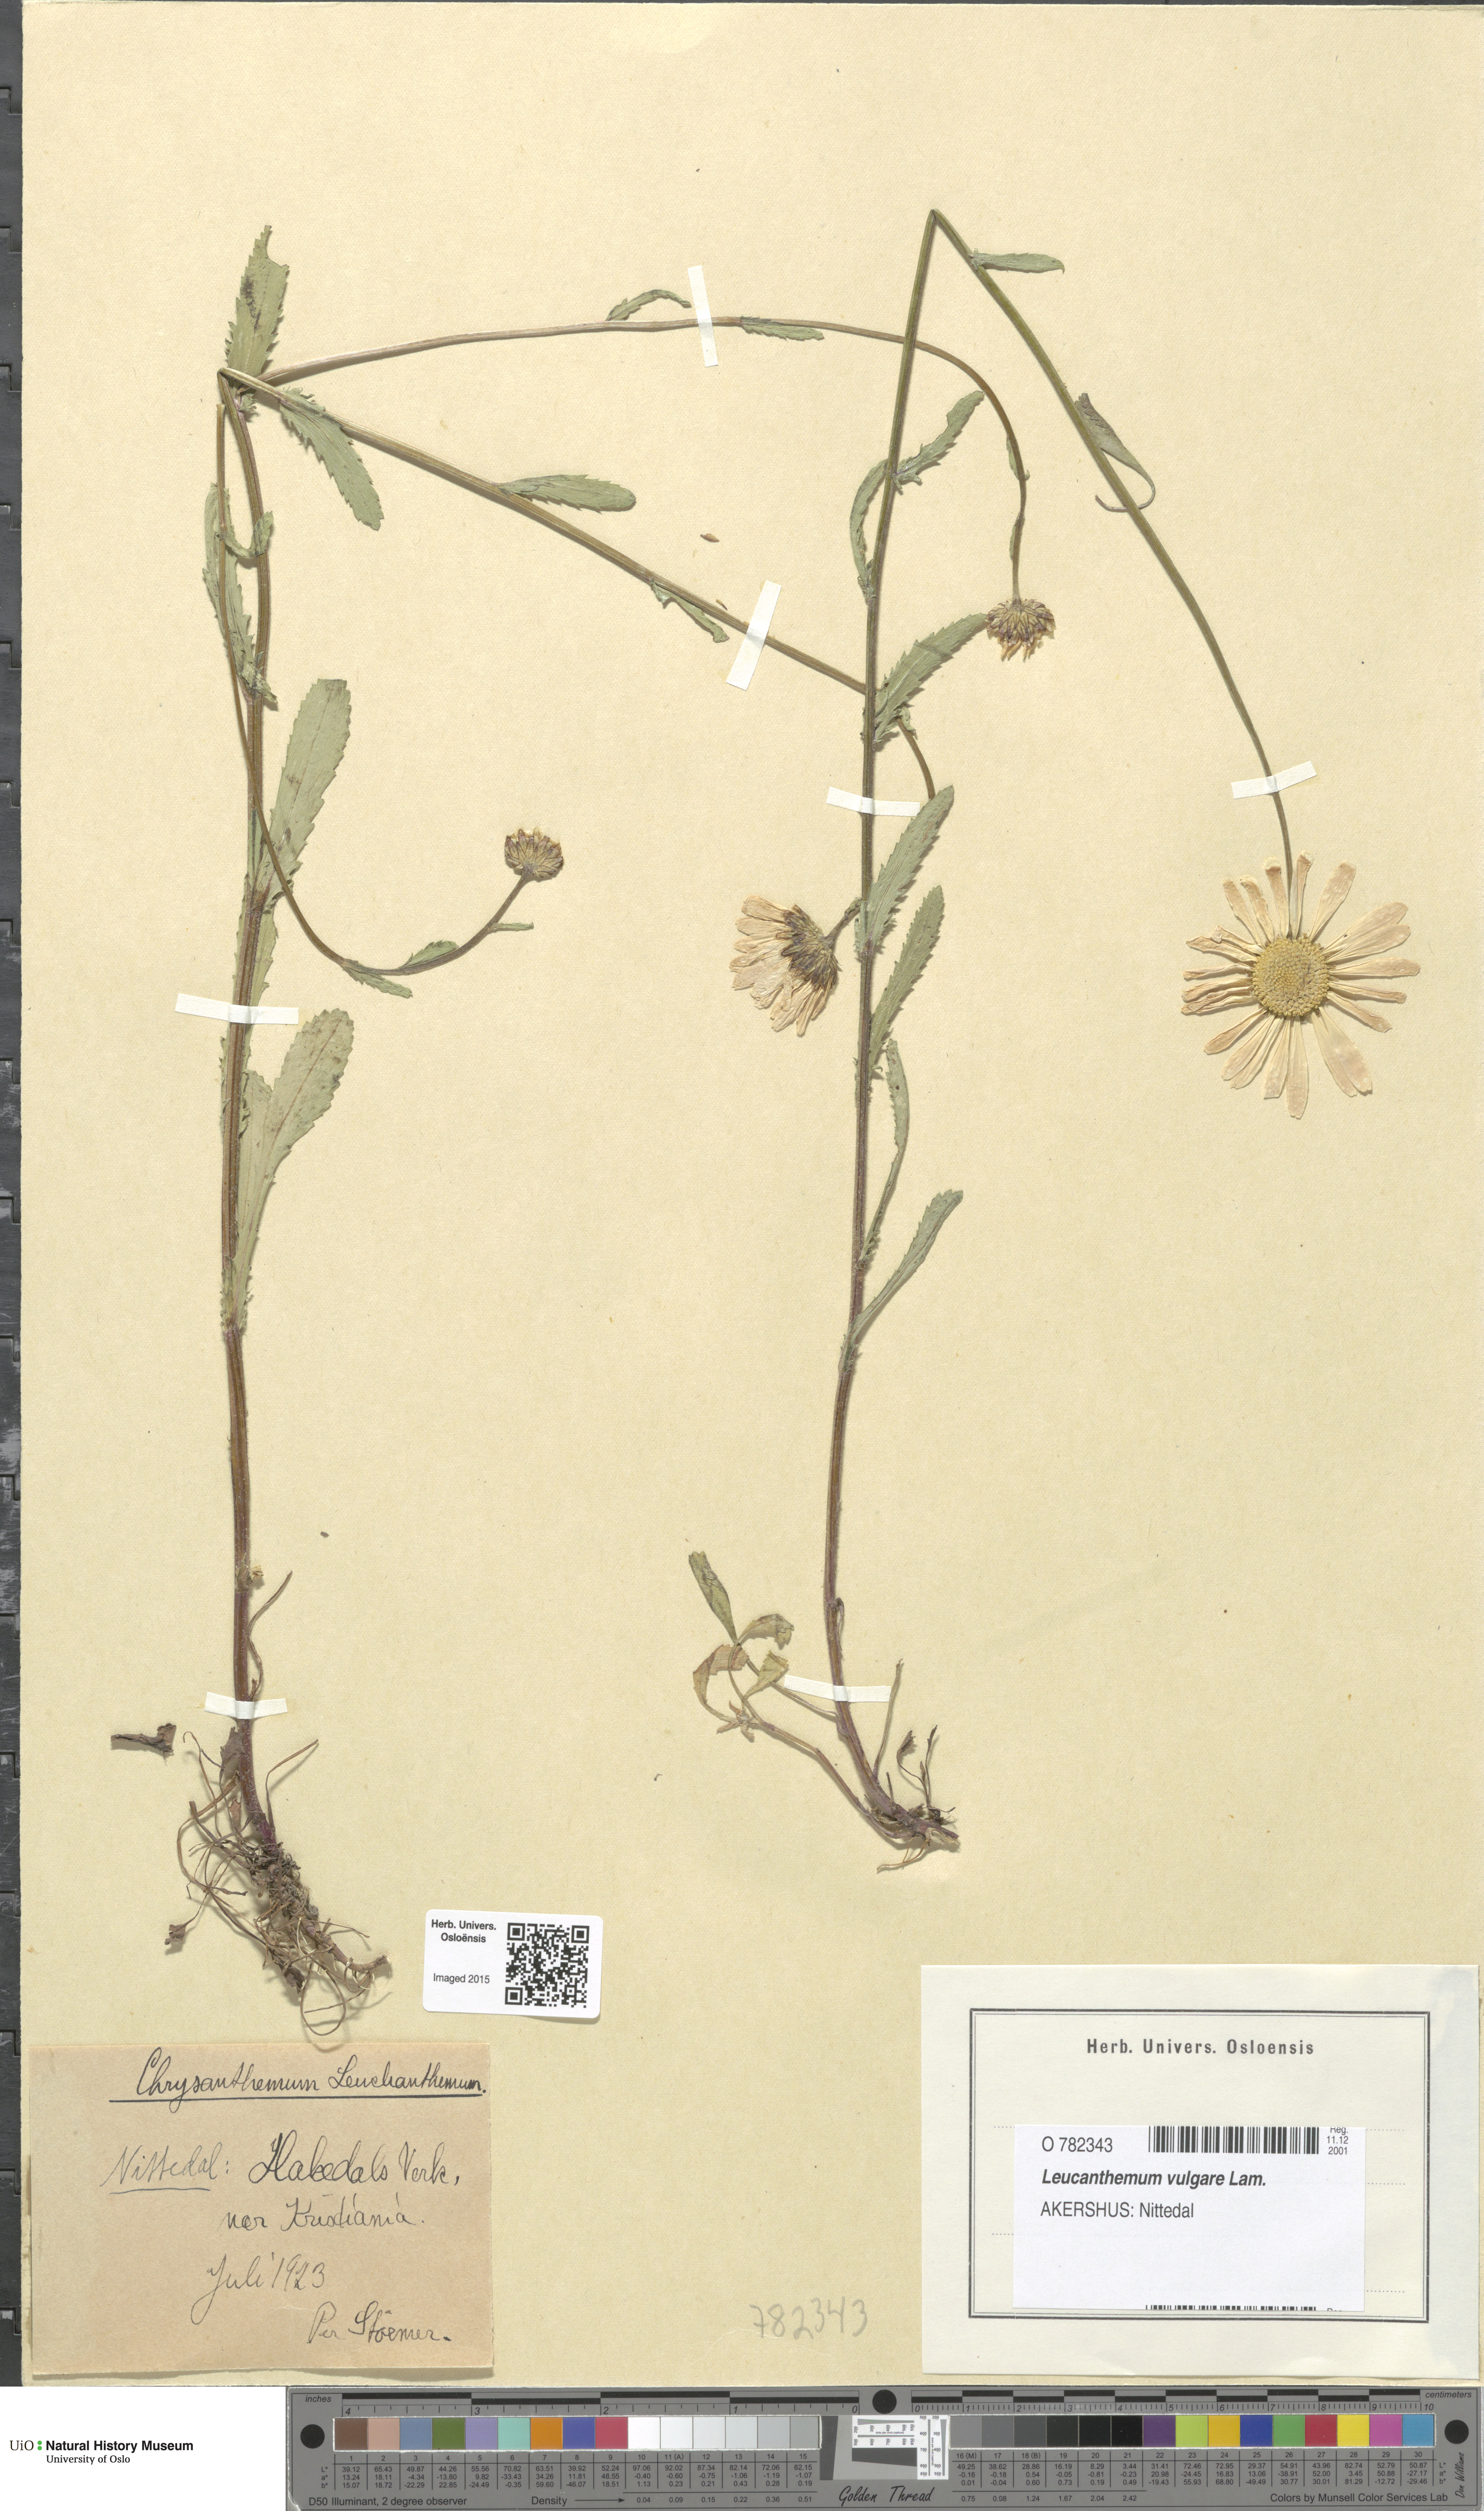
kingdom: Plantae
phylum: Tracheophyta
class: Magnoliopsida
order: Asterales
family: Asteraceae
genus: Leucanthemum
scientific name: Leucanthemum vulgare
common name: Oxeye daisy
